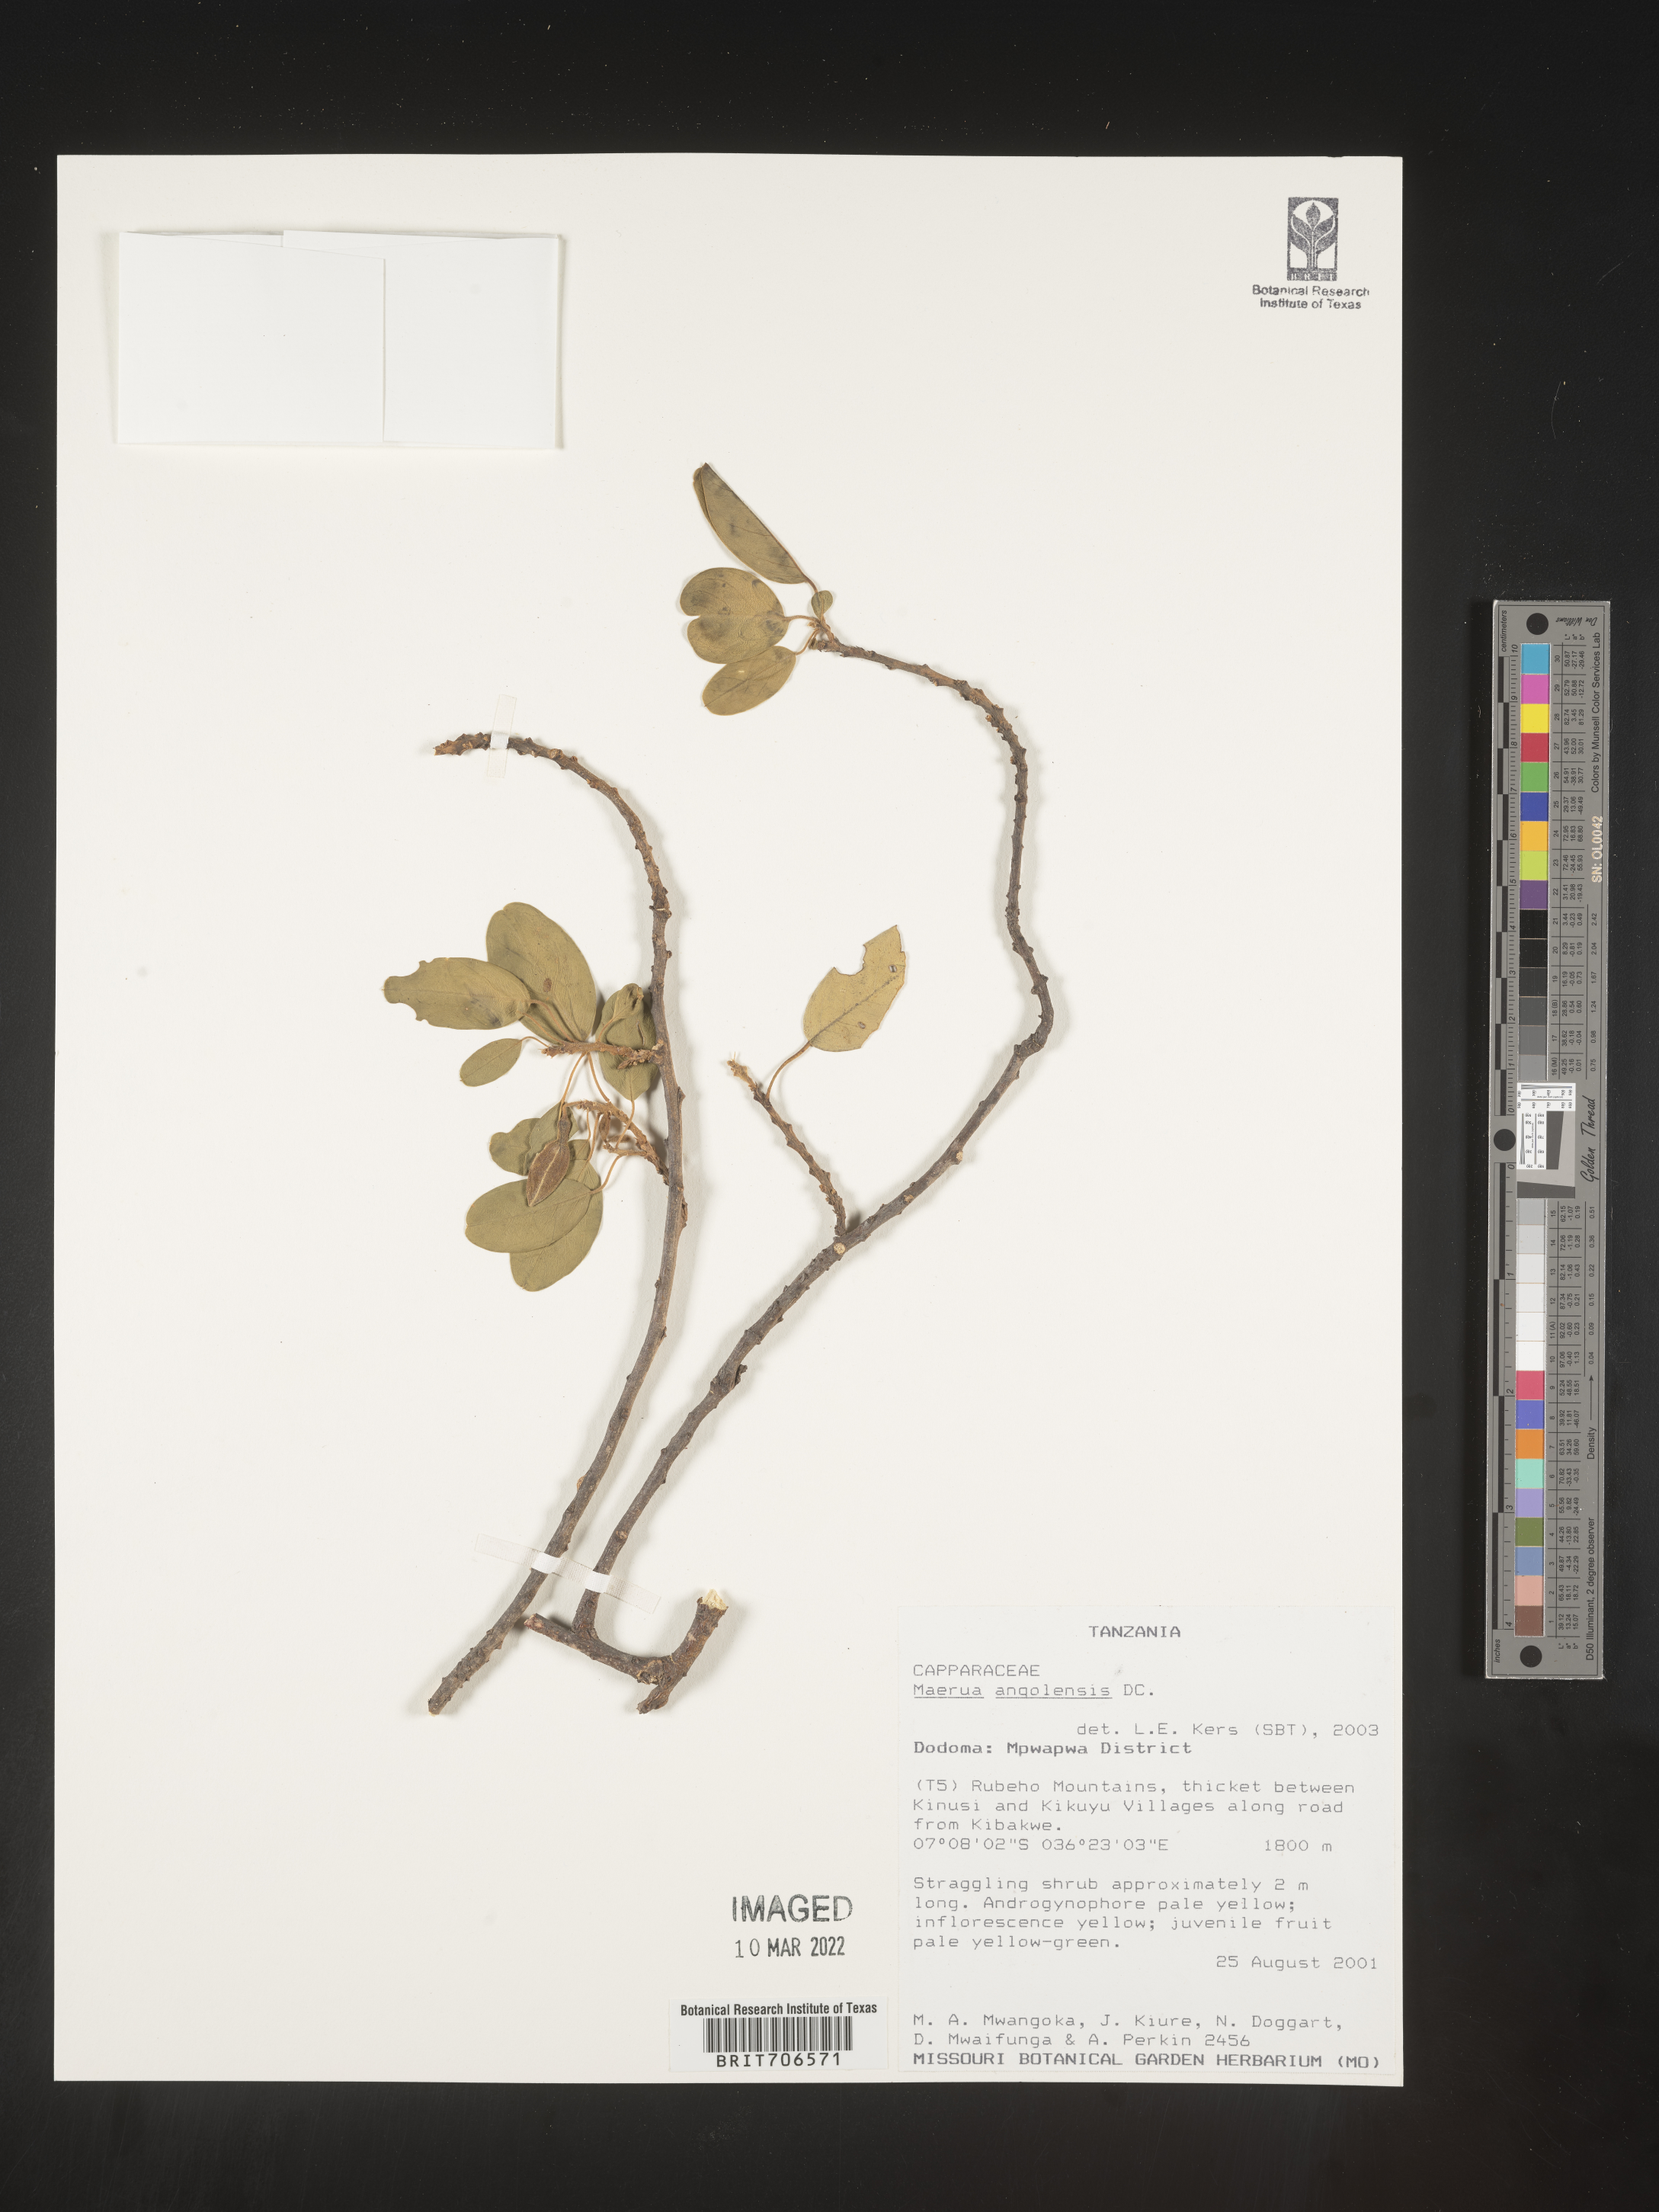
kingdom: Plantae
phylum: Tracheophyta
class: Magnoliopsida
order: Brassicales
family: Capparaceae
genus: Maerua
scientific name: Maerua
